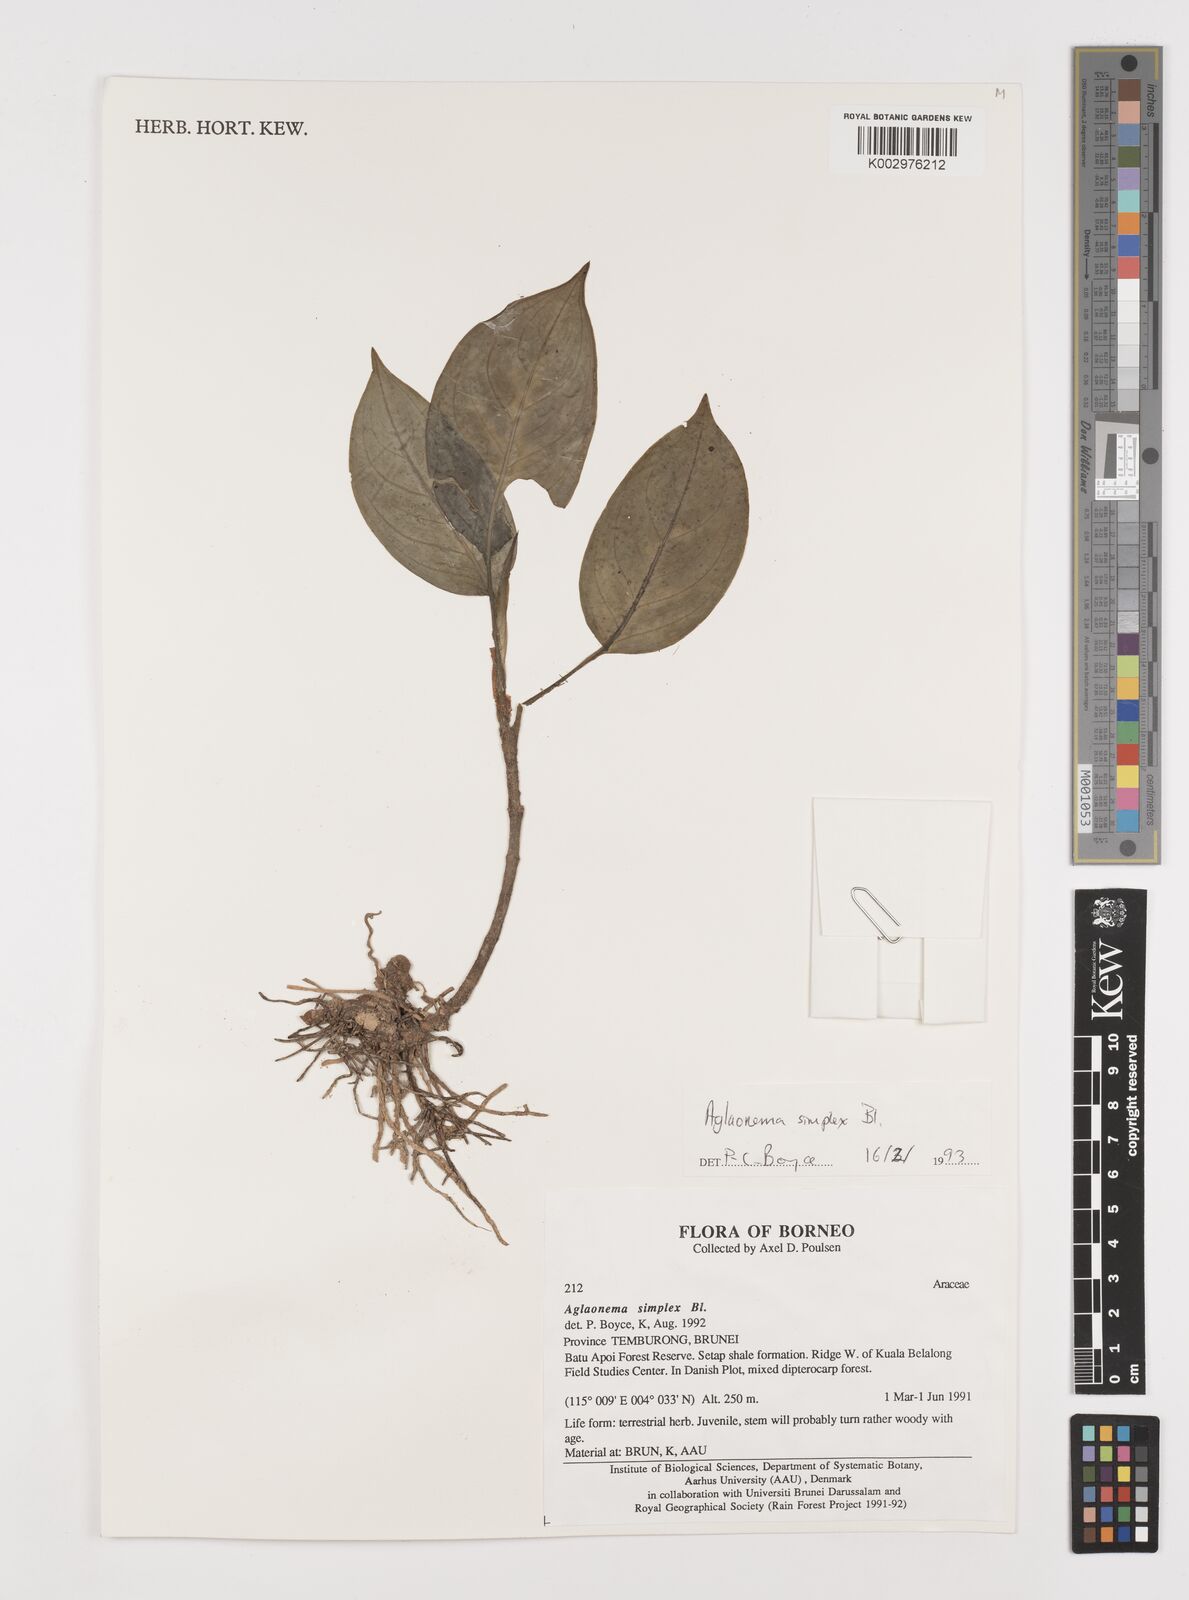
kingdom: Plantae
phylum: Tracheophyta
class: Liliopsida
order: Alismatales
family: Araceae
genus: Aglaonema
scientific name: Aglaonema simplex
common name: Malayan-sword
